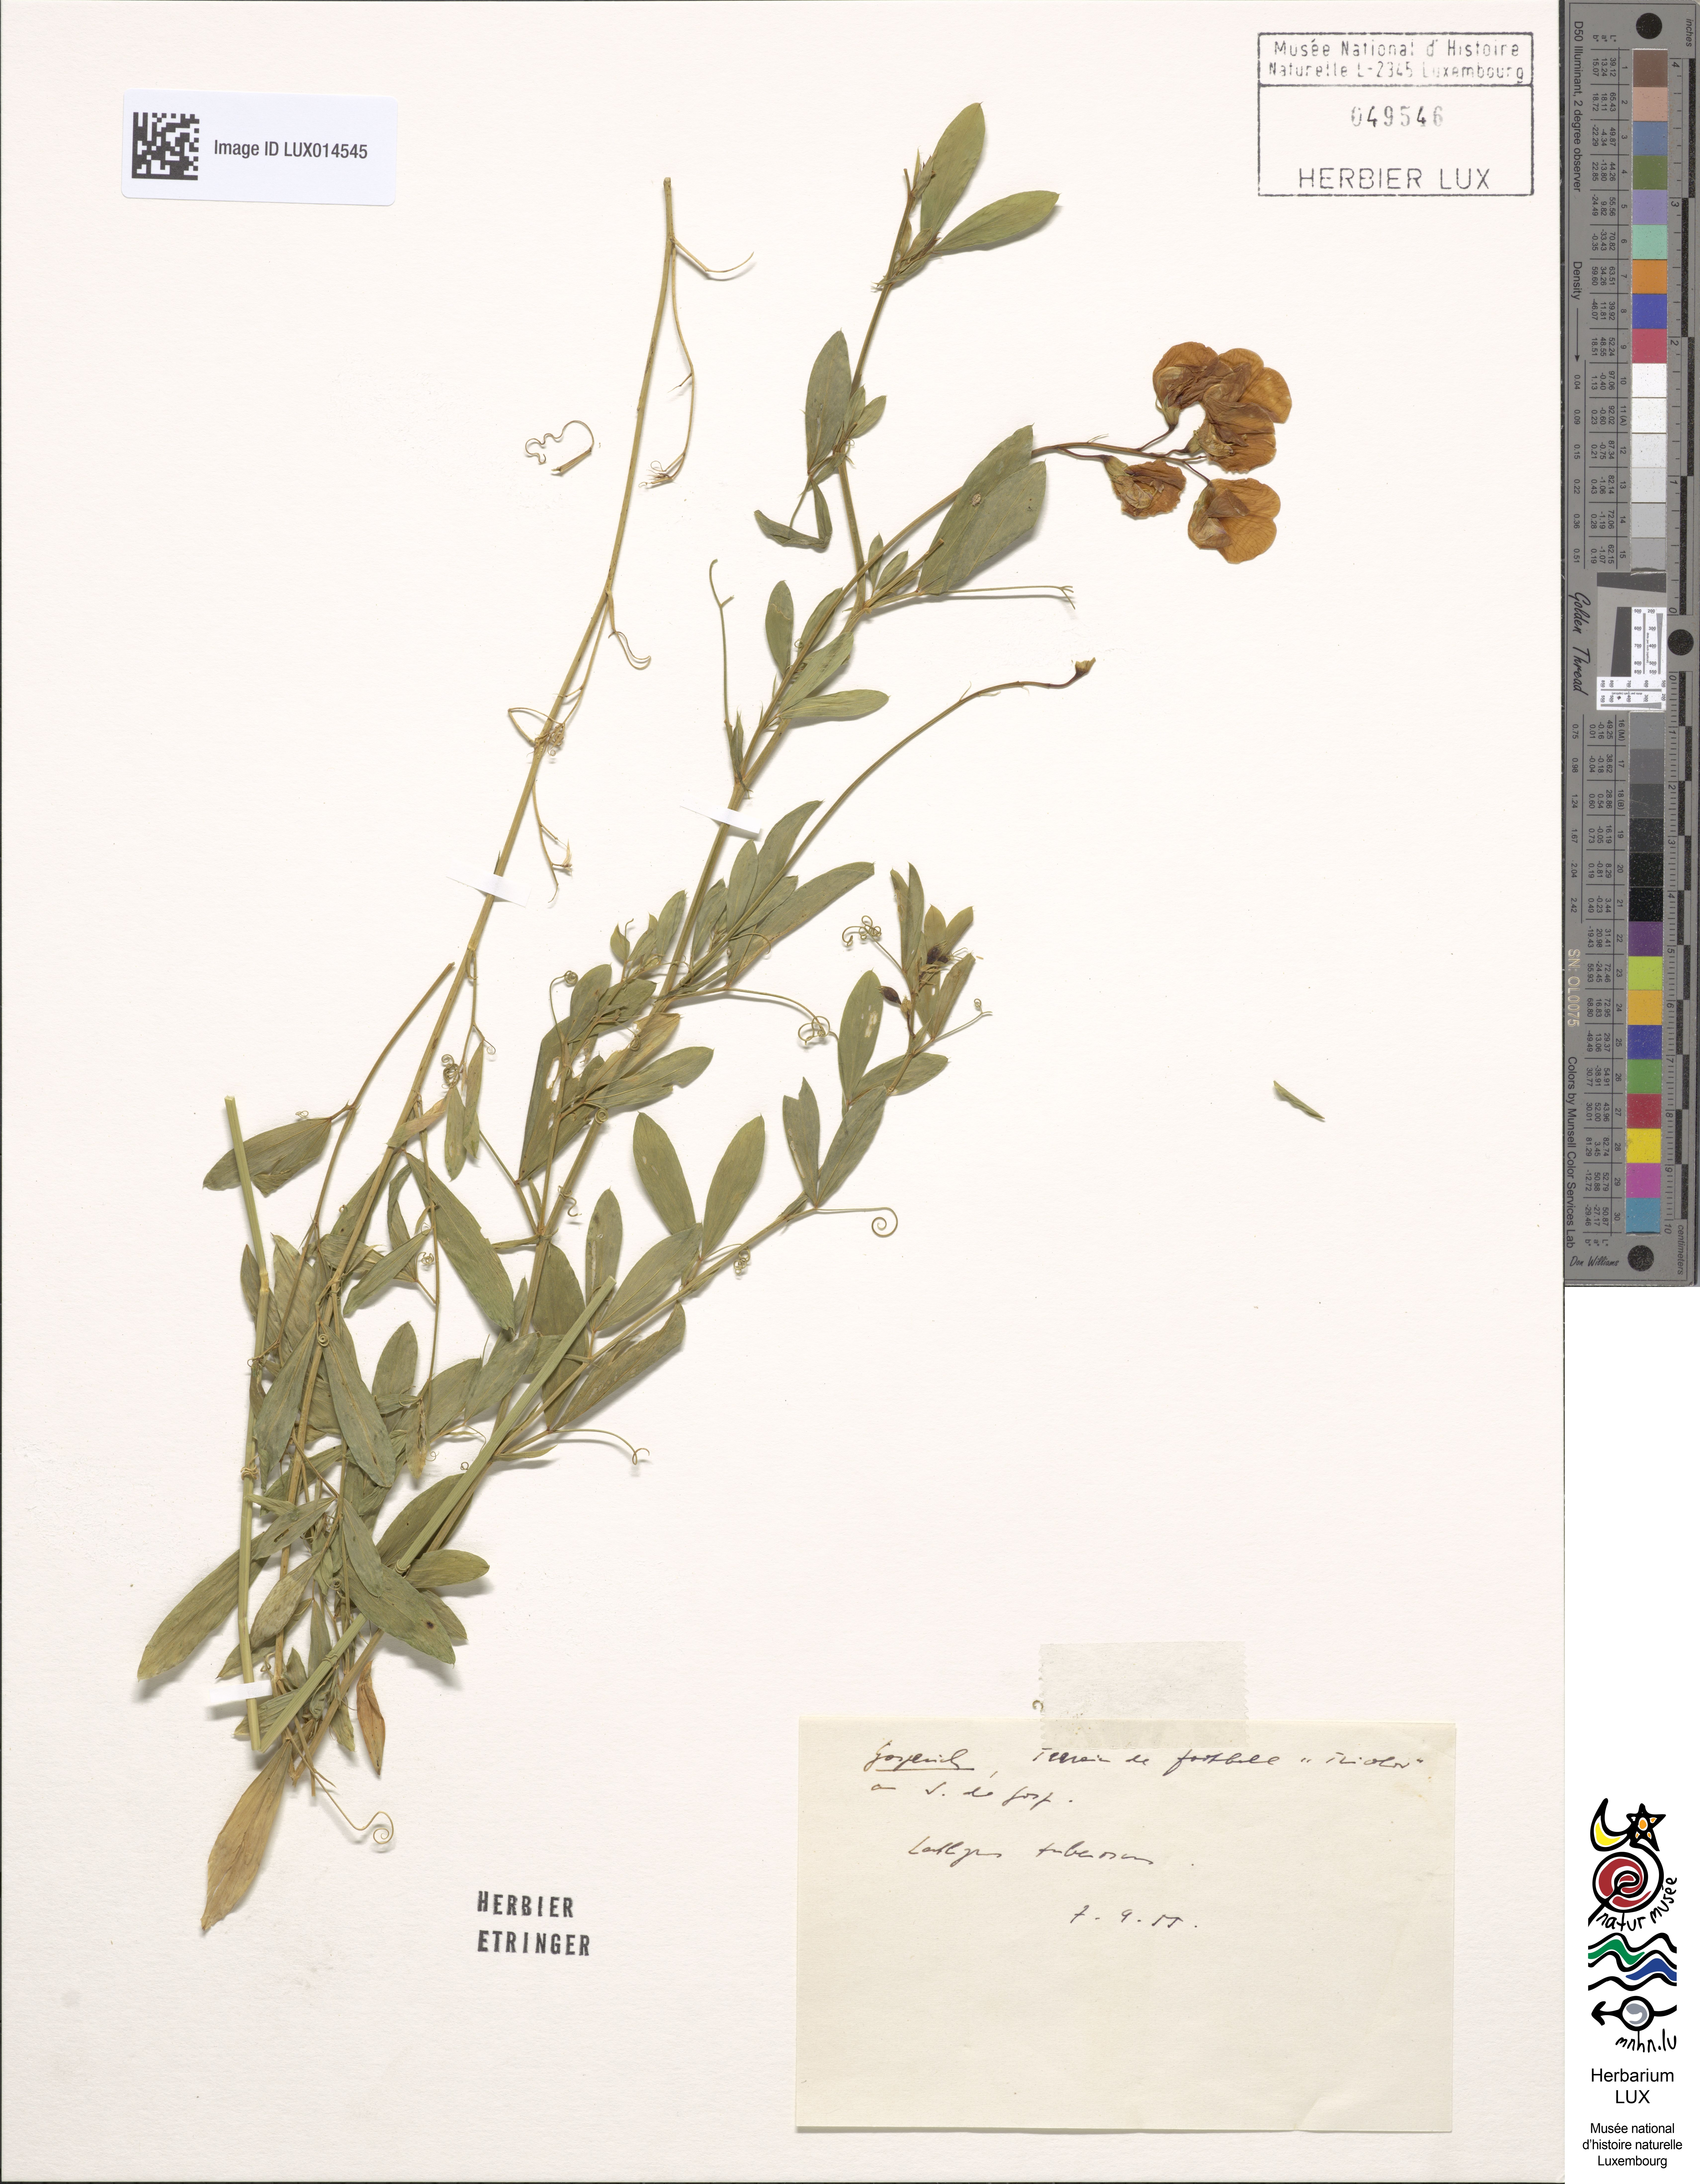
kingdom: Plantae
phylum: Tracheophyta
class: Magnoliopsida
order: Fabales
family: Fabaceae
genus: Lathyrus
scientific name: Lathyrus tuberosus
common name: Tuberous pea
